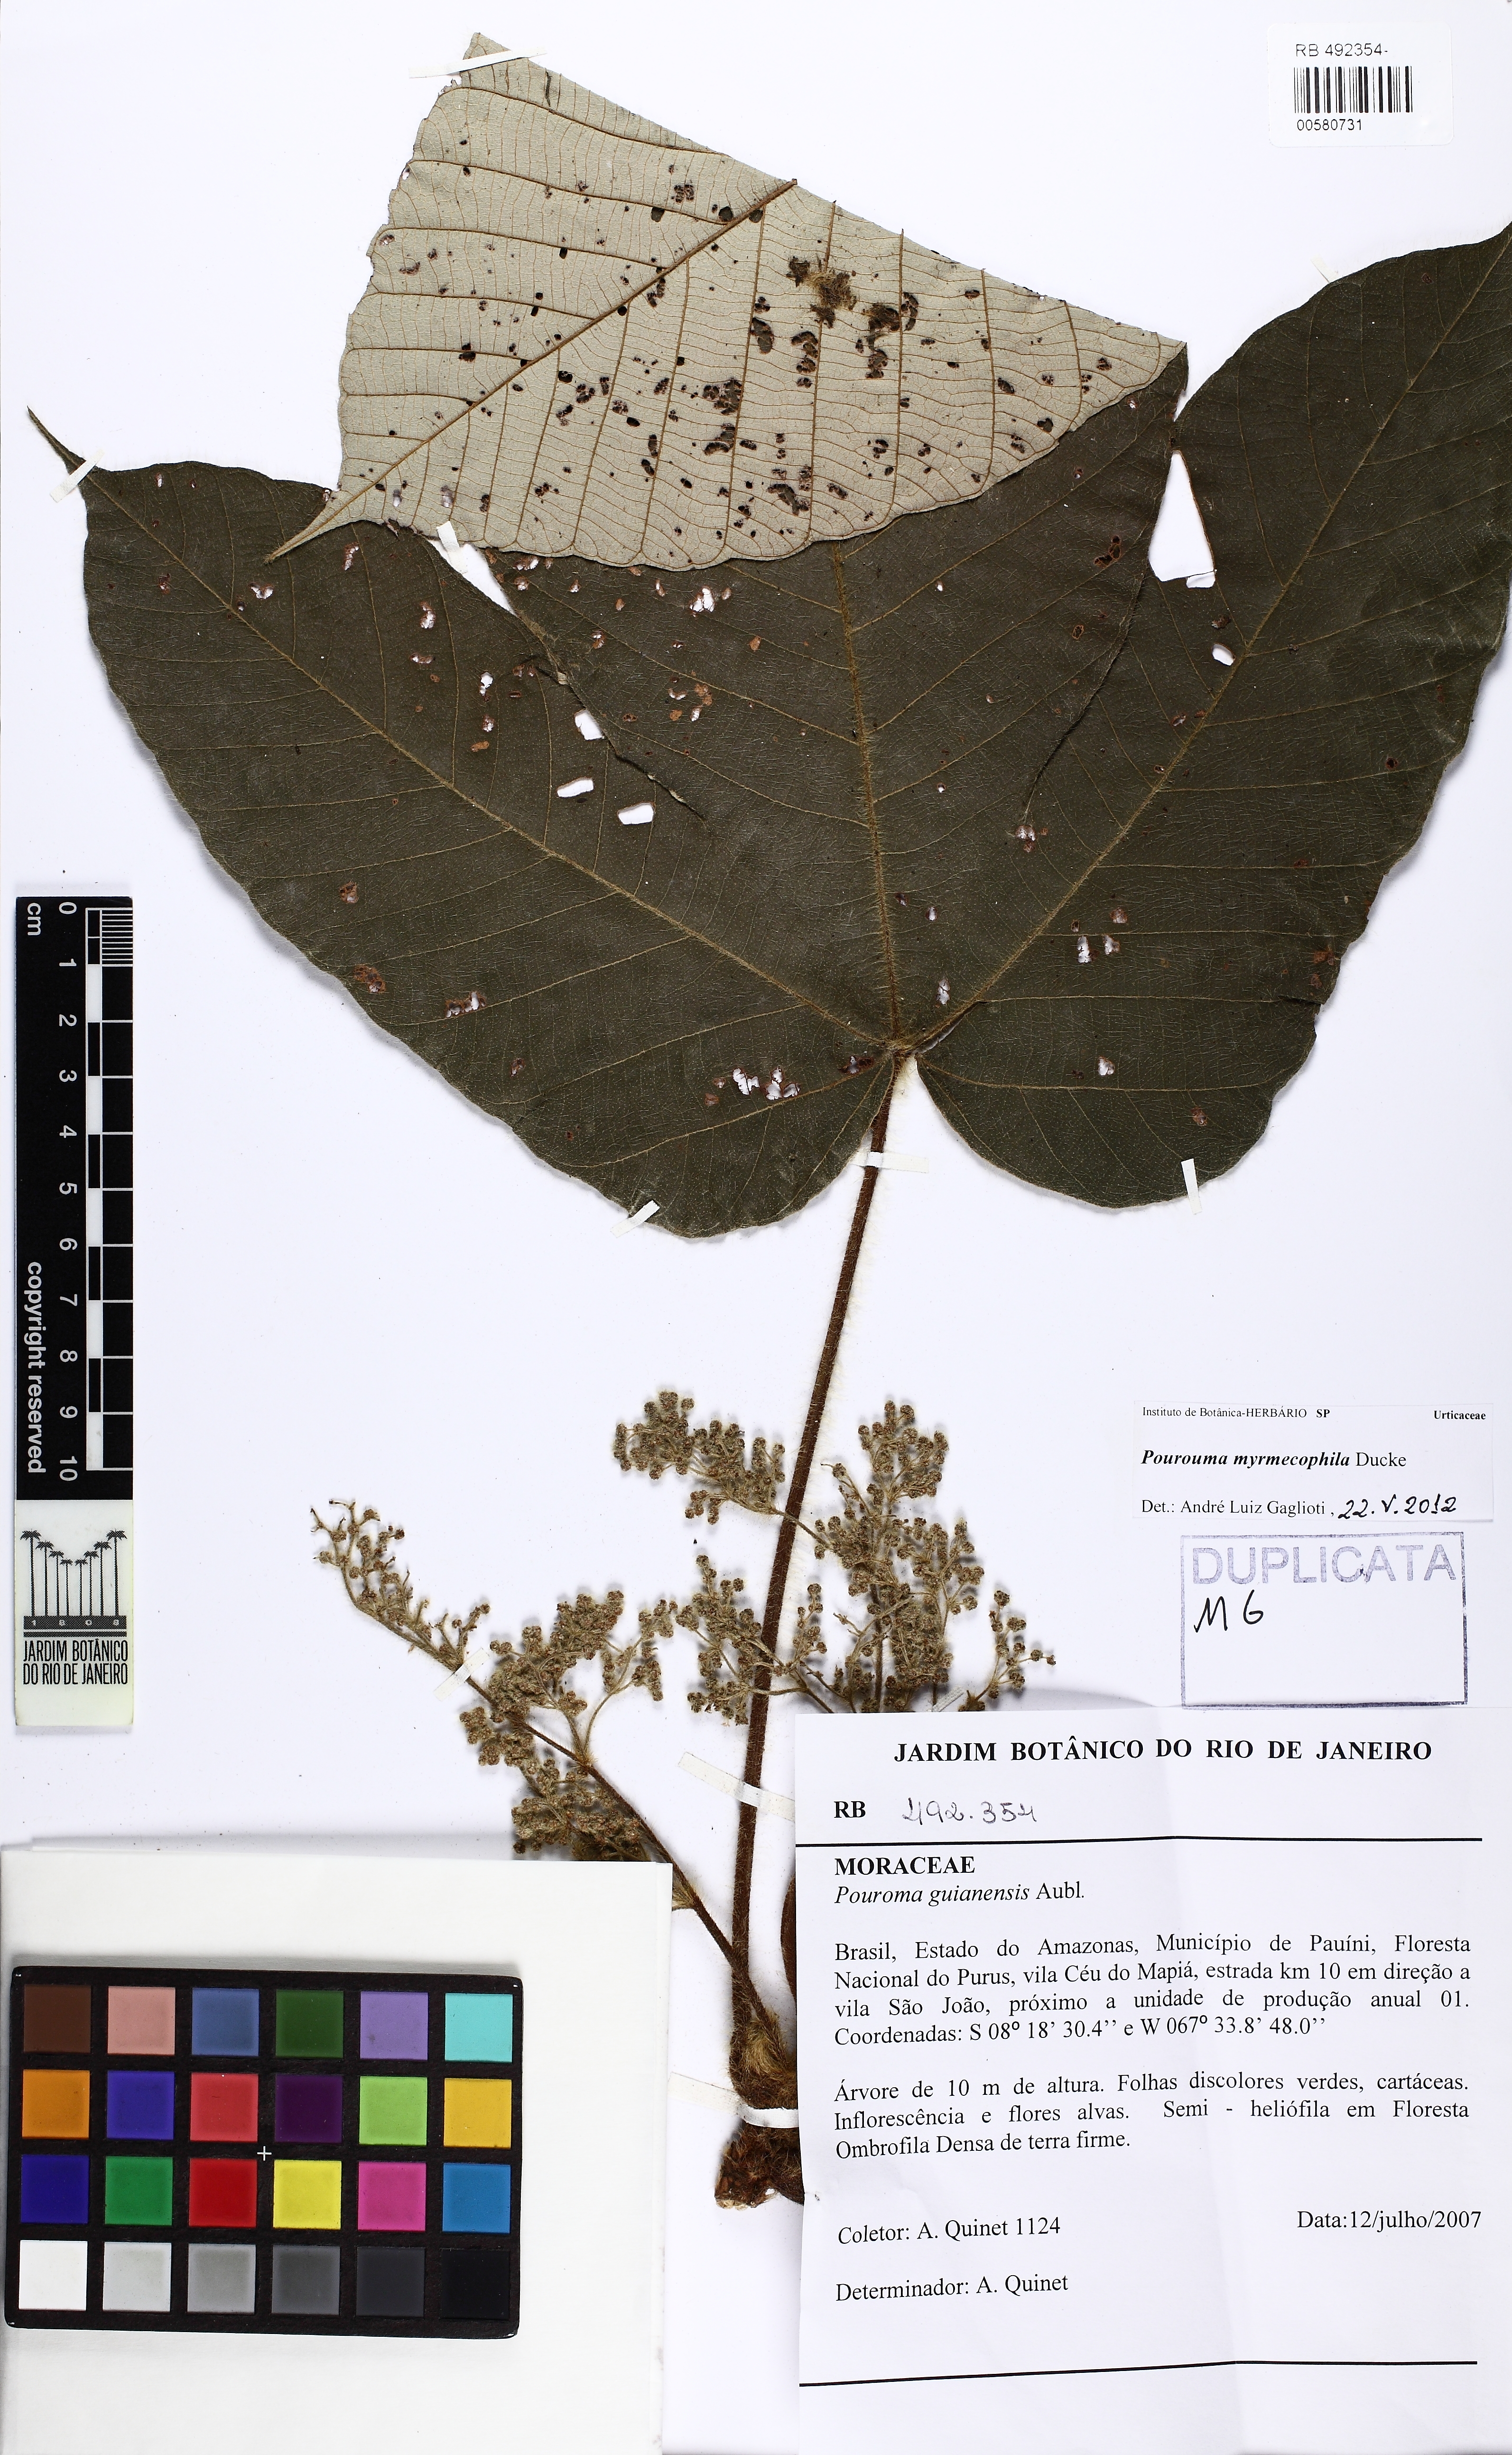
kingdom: Plantae
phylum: Tracheophyta
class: Magnoliopsida
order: Rosales
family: Urticaceae
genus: Pourouma
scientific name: Pourouma myrmecophila
